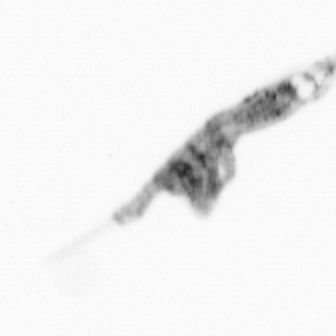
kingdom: Animalia
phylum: Arthropoda
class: Copepoda
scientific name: Copepoda
